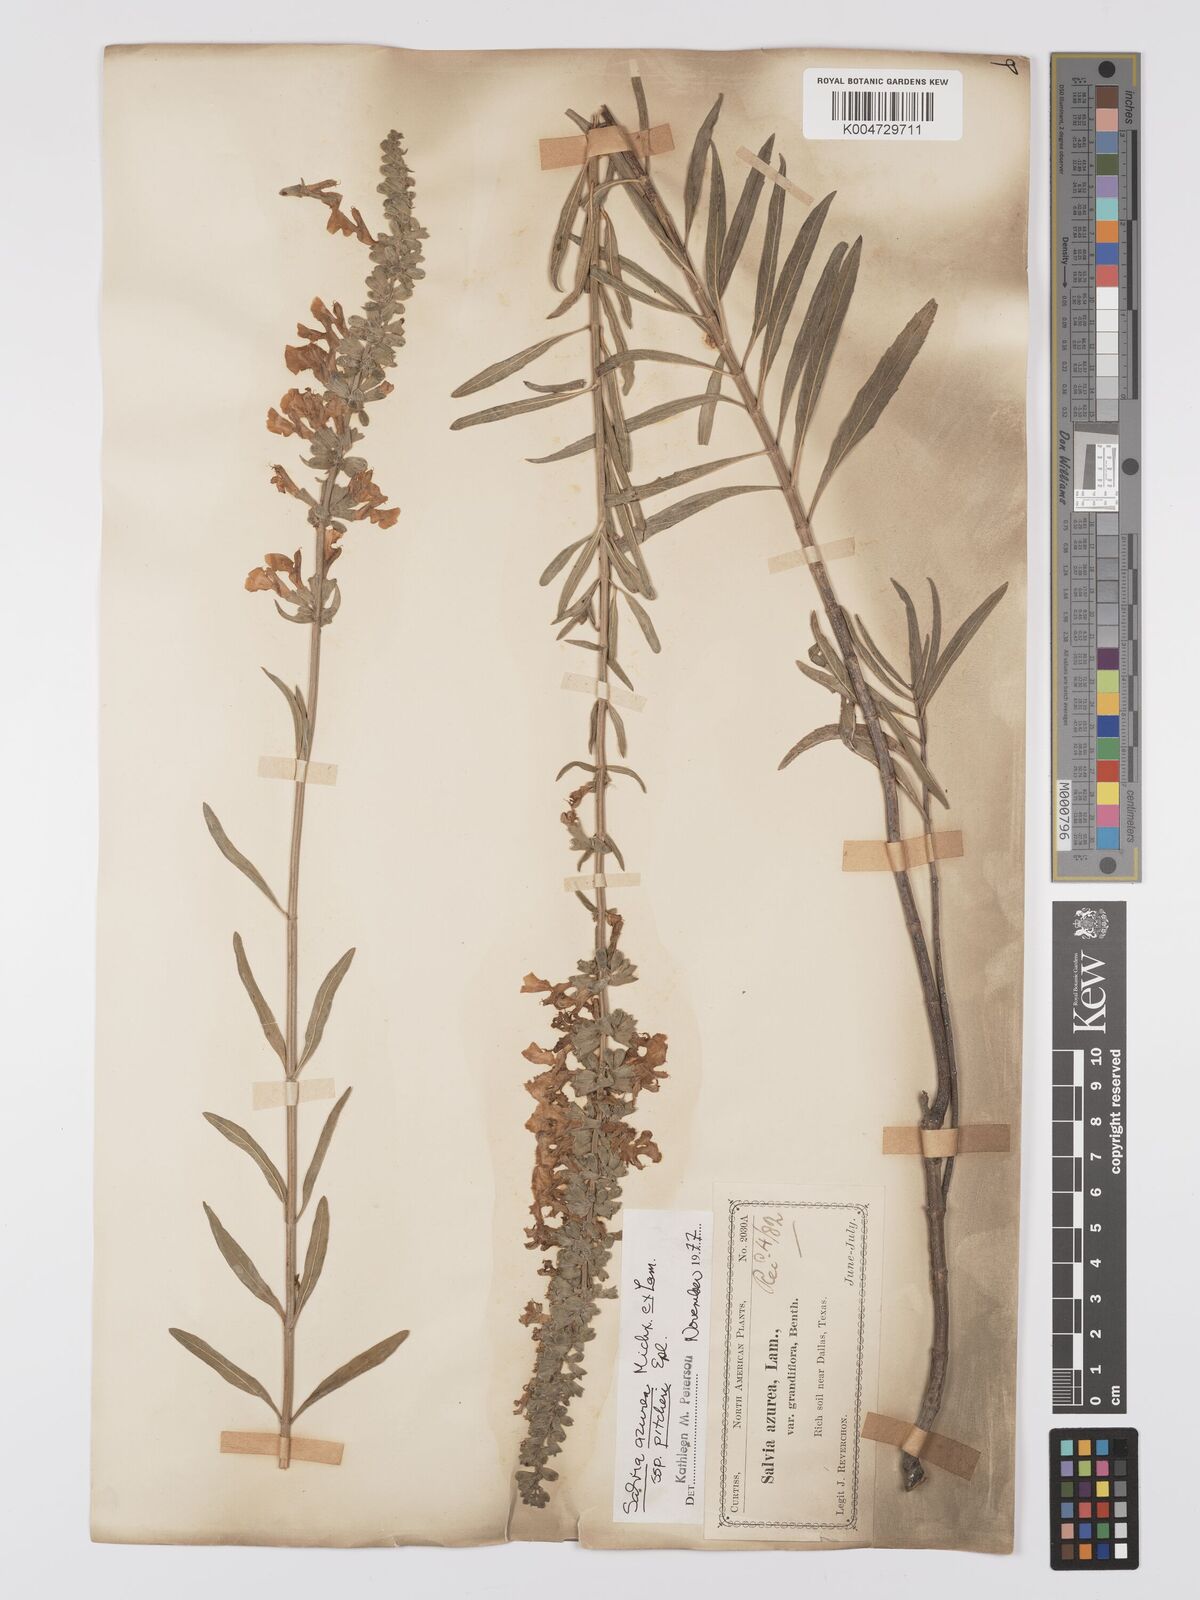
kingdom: Plantae
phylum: Tracheophyta
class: Magnoliopsida
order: Lamiales
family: Lamiaceae
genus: Salvia
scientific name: Salvia azurea
